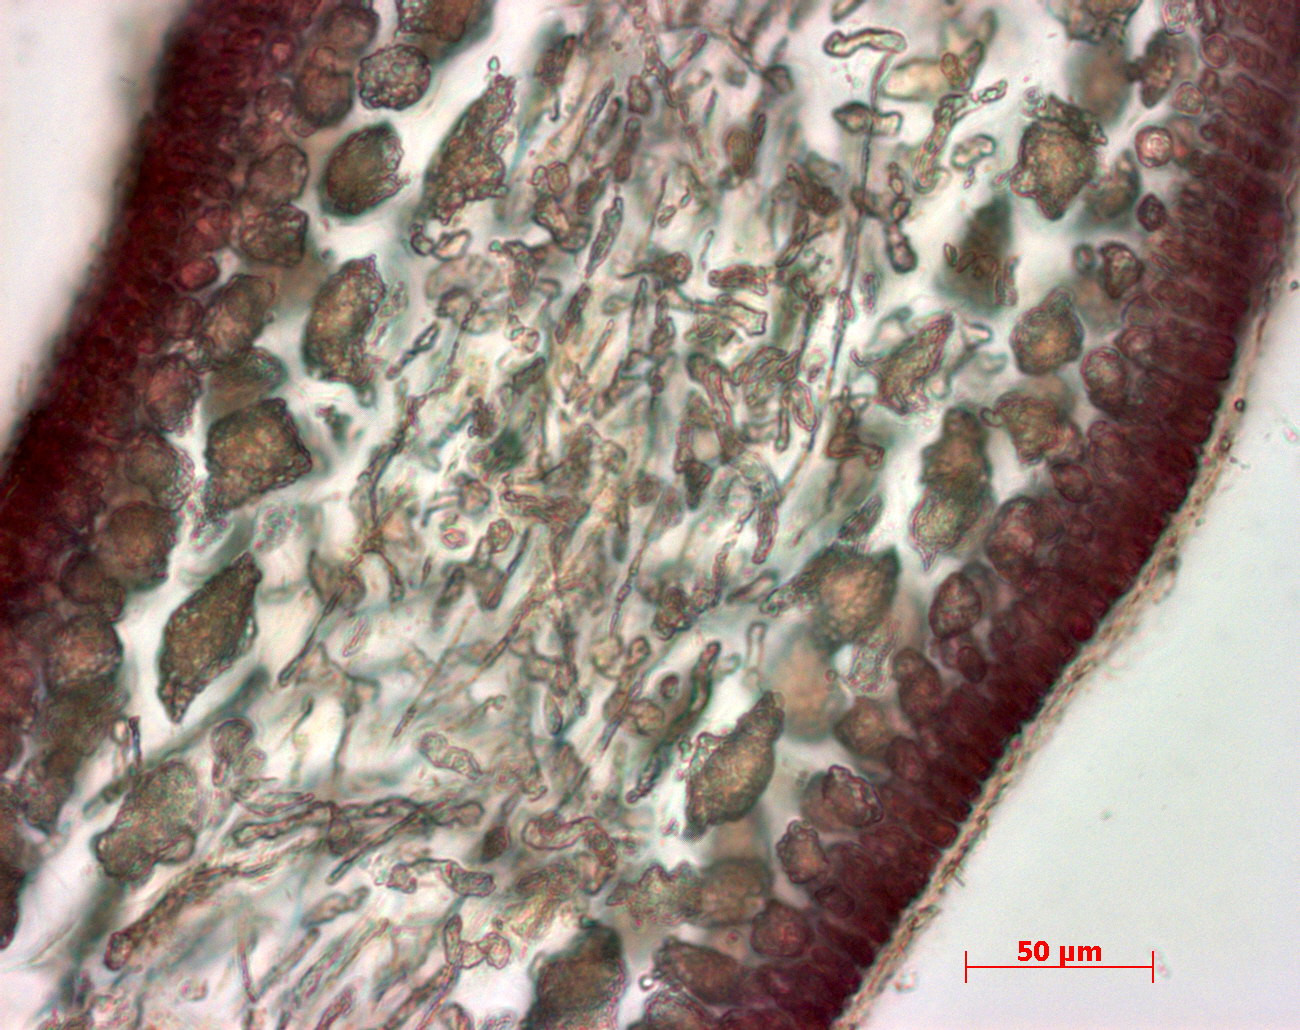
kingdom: Plantae
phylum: Rhodophyta
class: Florideophyceae
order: Gigartinales
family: Kallymeniaceae
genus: Psaromenia
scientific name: Psaromenia berggrenii
